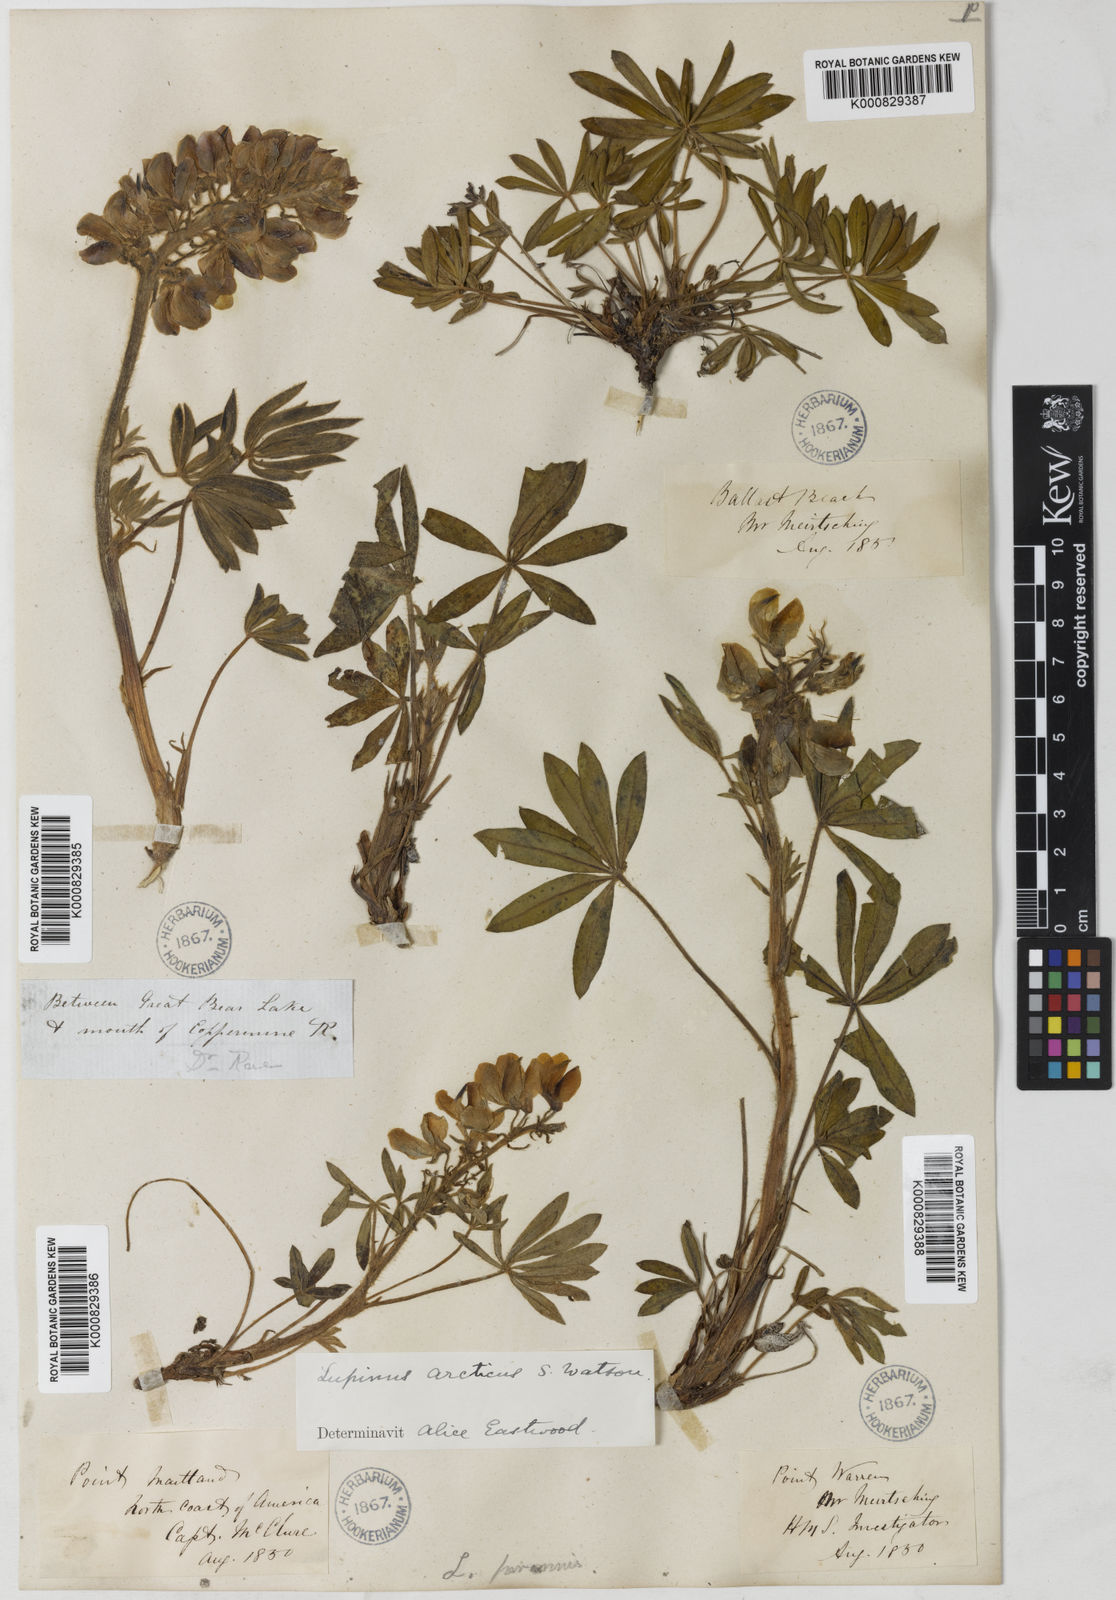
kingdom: Plantae
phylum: Tracheophyta
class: Magnoliopsida
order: Fabales
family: Fabaceae
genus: Lupinus
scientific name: Lupinus arcticus
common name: Arctic lupine
